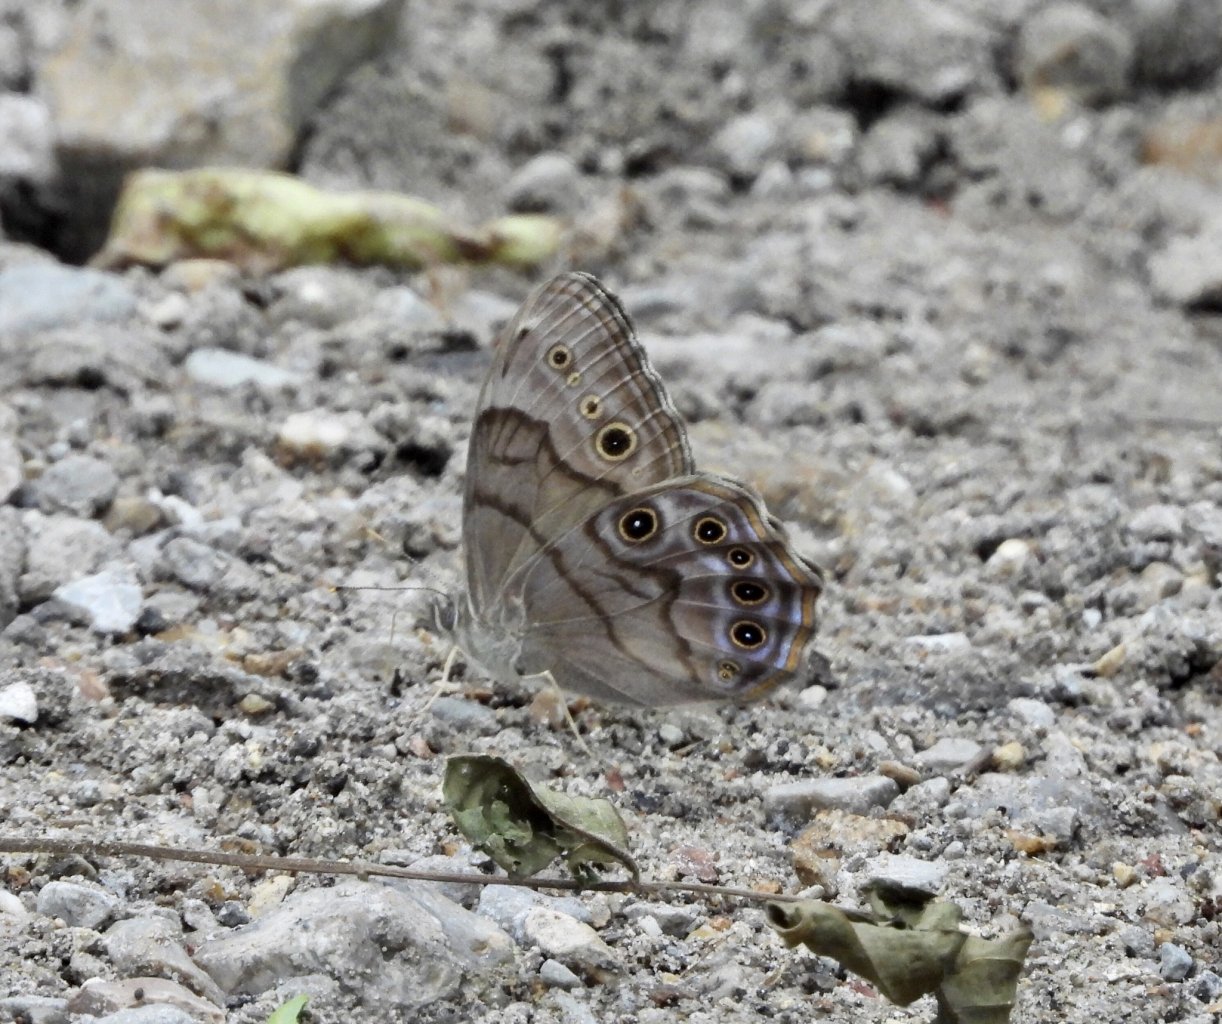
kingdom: Animalia
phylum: Arthropoda
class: Insecta
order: Lepidoptera
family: Nymphalidae
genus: Lethe
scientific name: Lethe anthedon
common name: Northern Pearly-Eye
